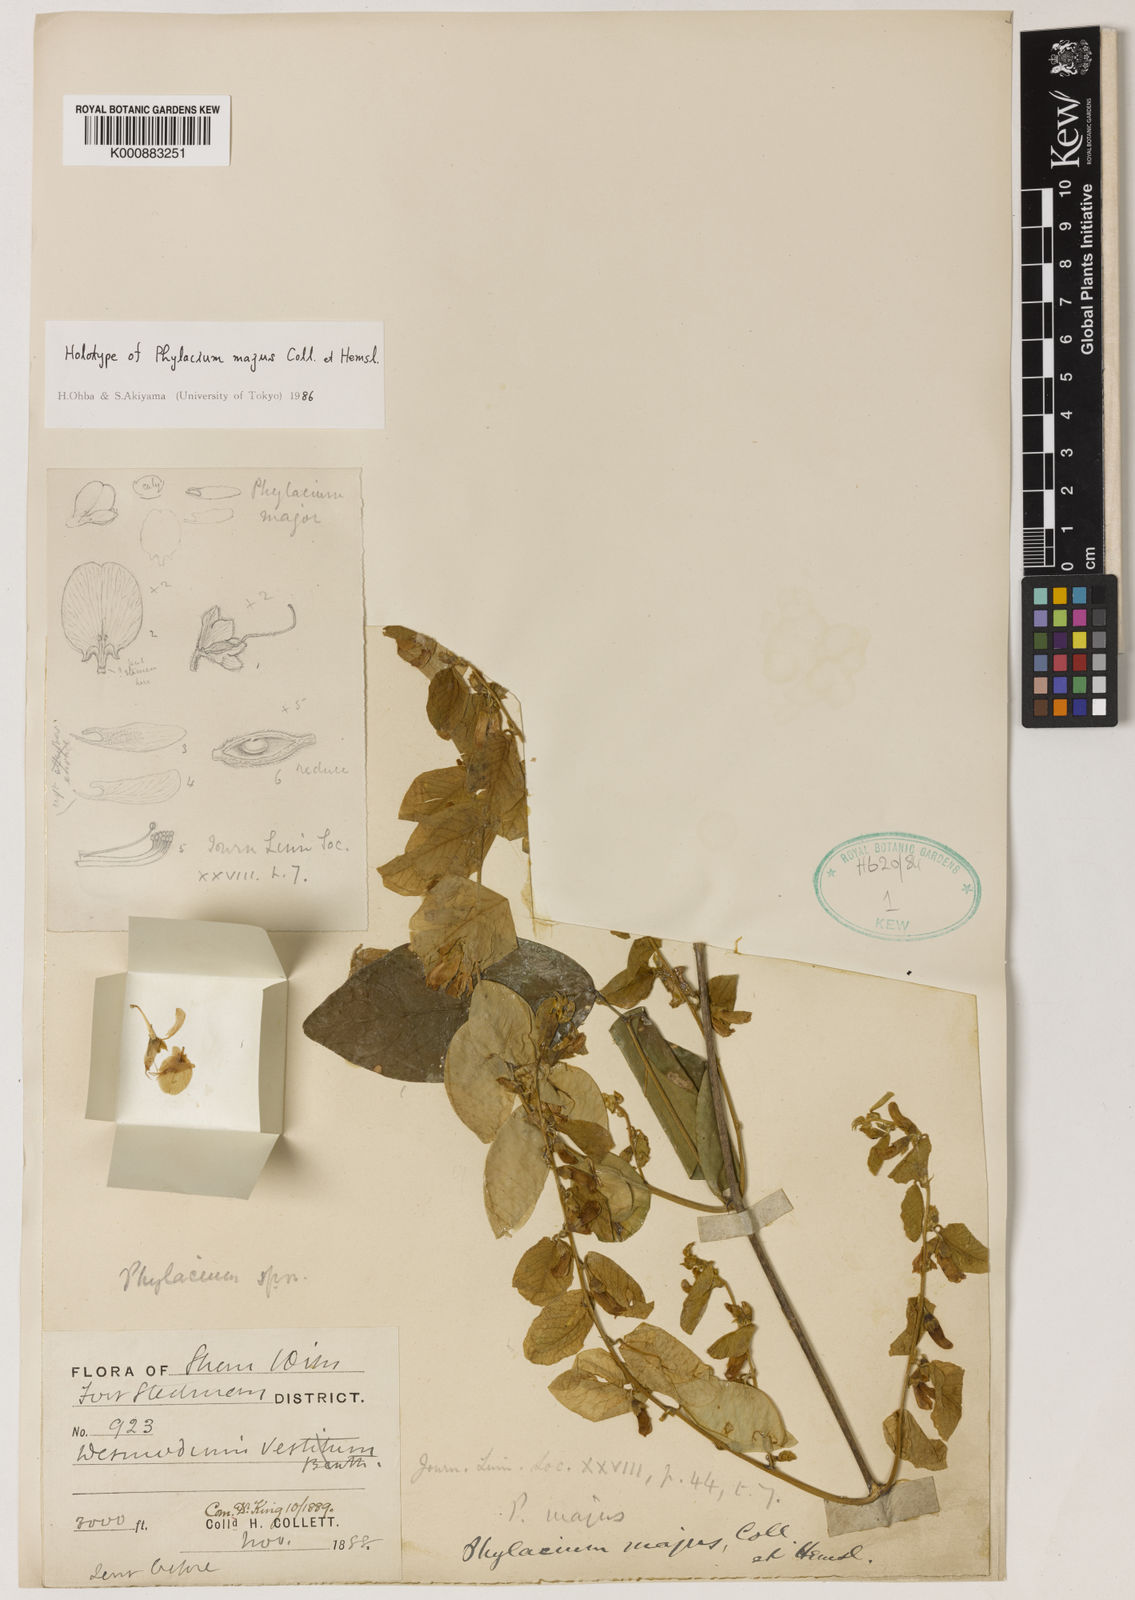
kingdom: Plantae
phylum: Tracheophyta
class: Magnoliopsida
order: Fabales
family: Fabaceae
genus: Phylacium
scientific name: Phylacium majus
